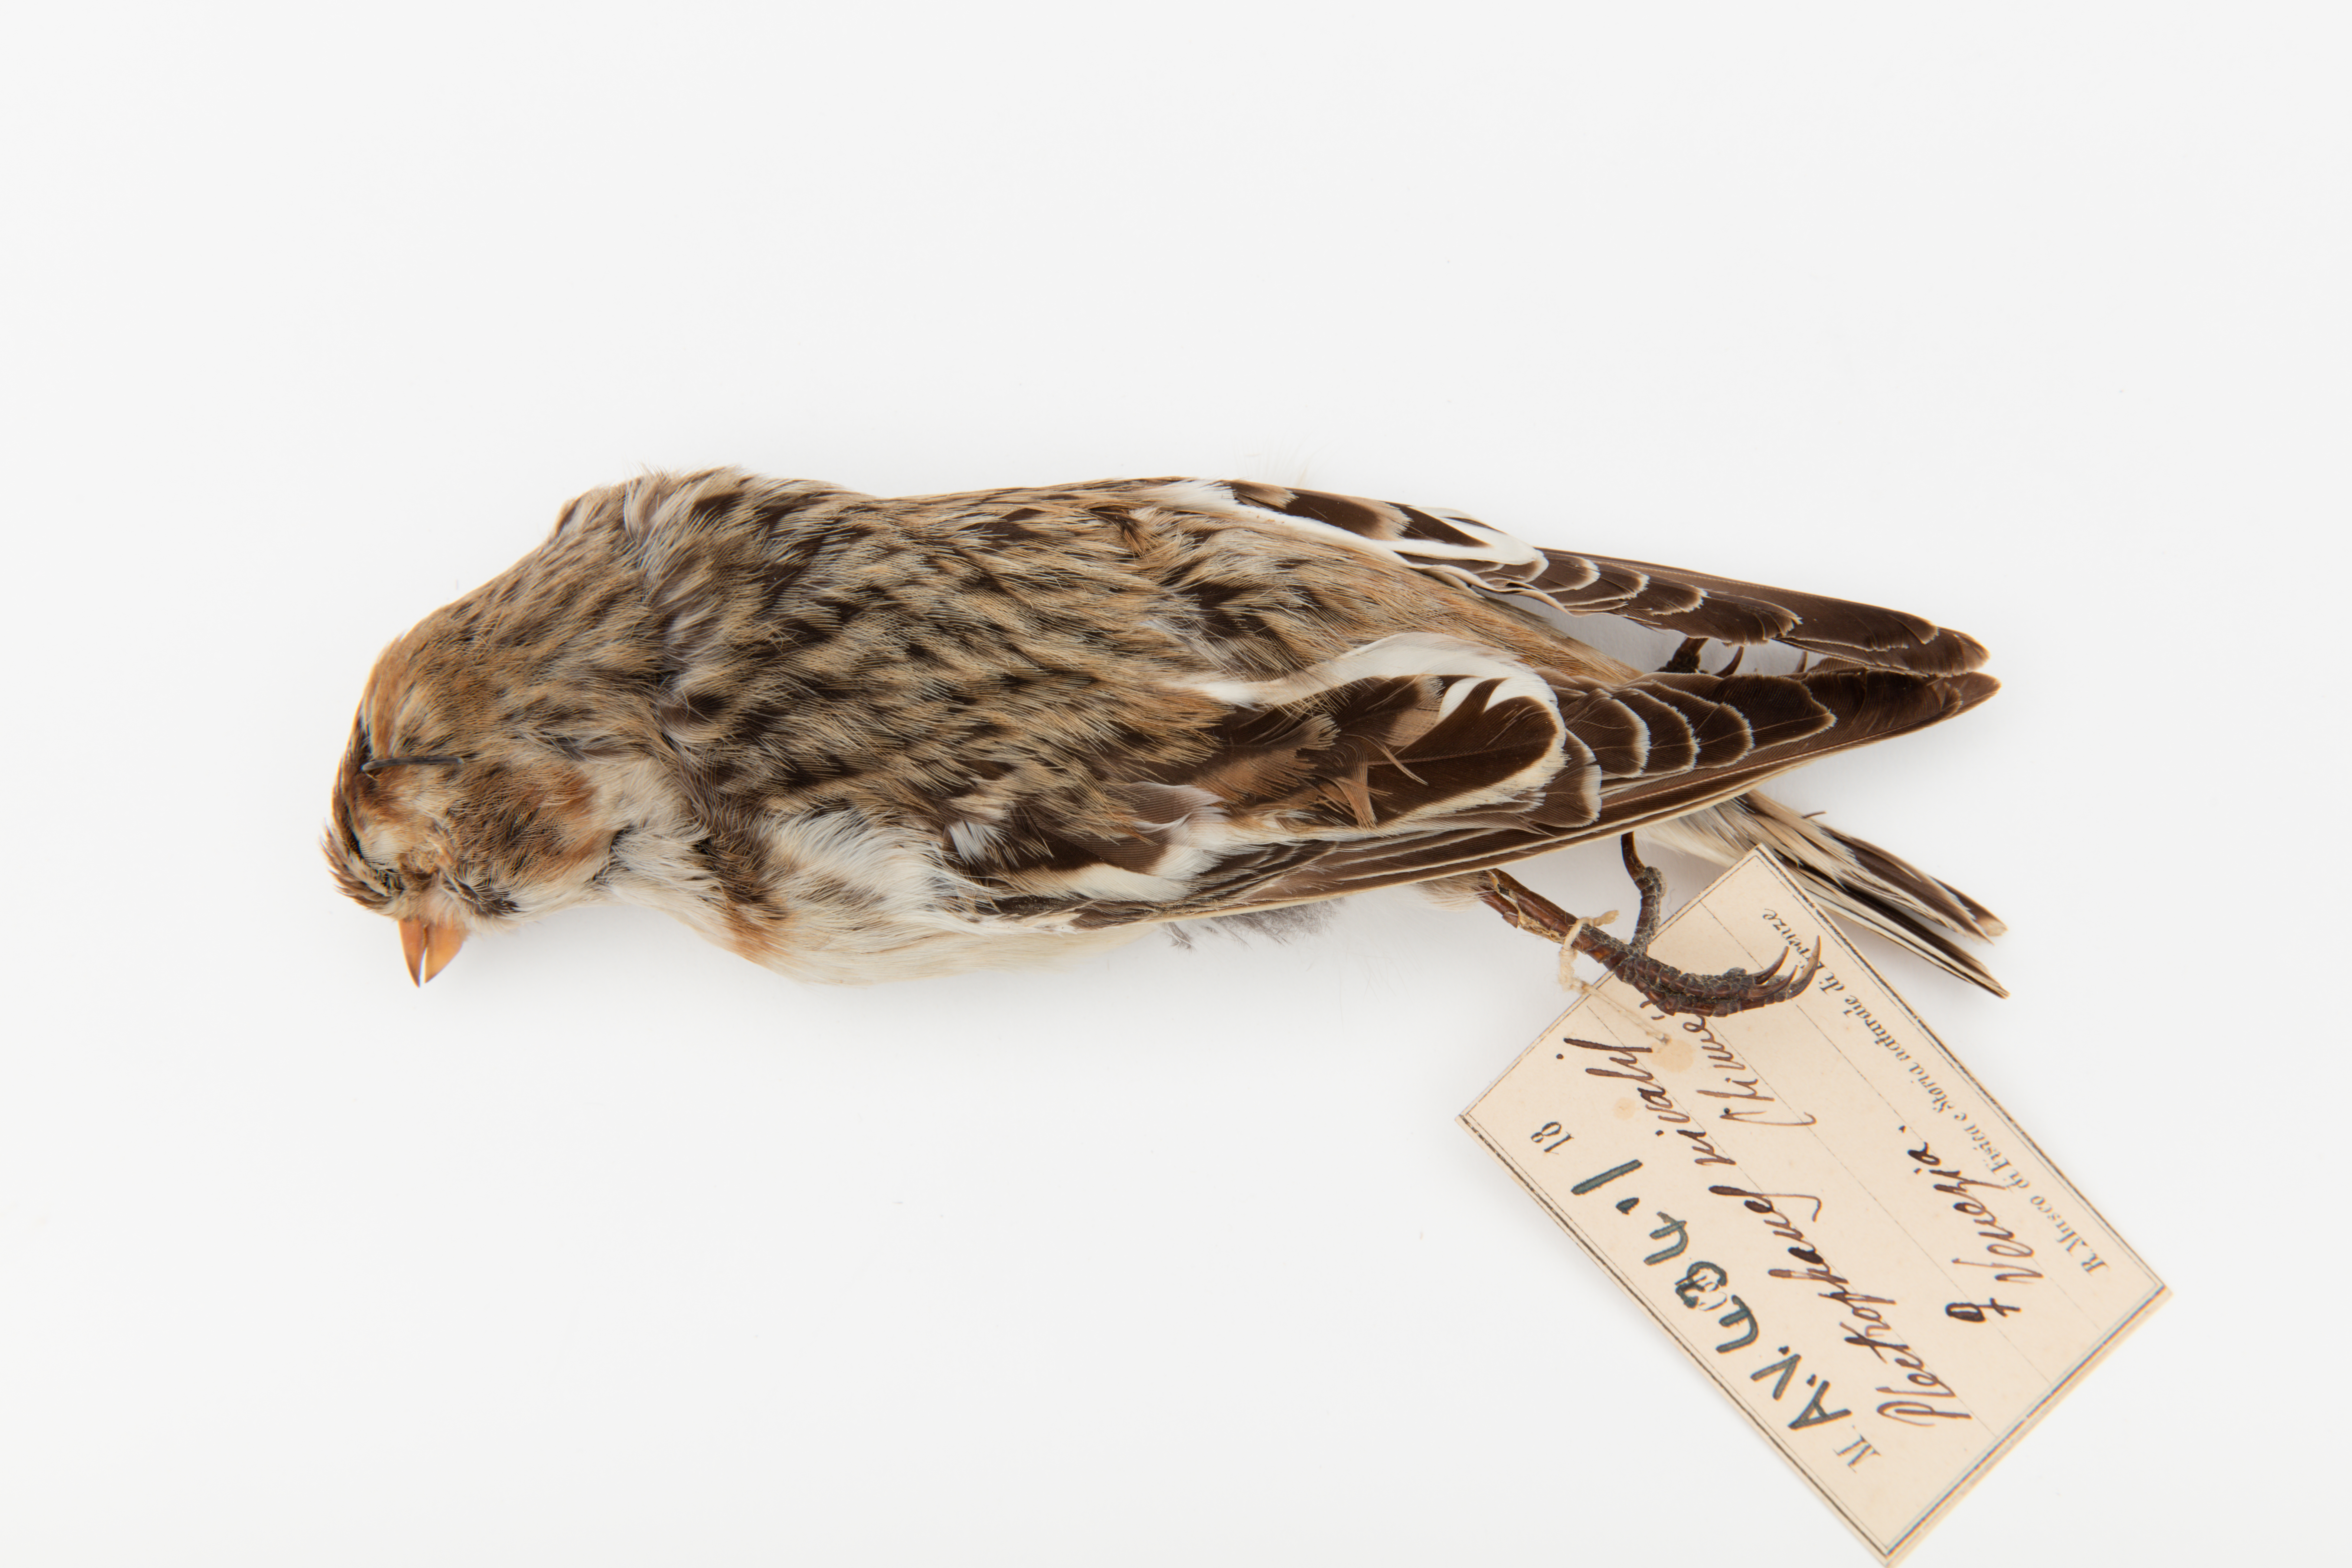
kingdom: Animalia
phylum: Chordata
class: Aves
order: Passeriformes
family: Calcariidae
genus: Plectrophenax
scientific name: Plectrophenax nivalis
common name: Snow bunting
